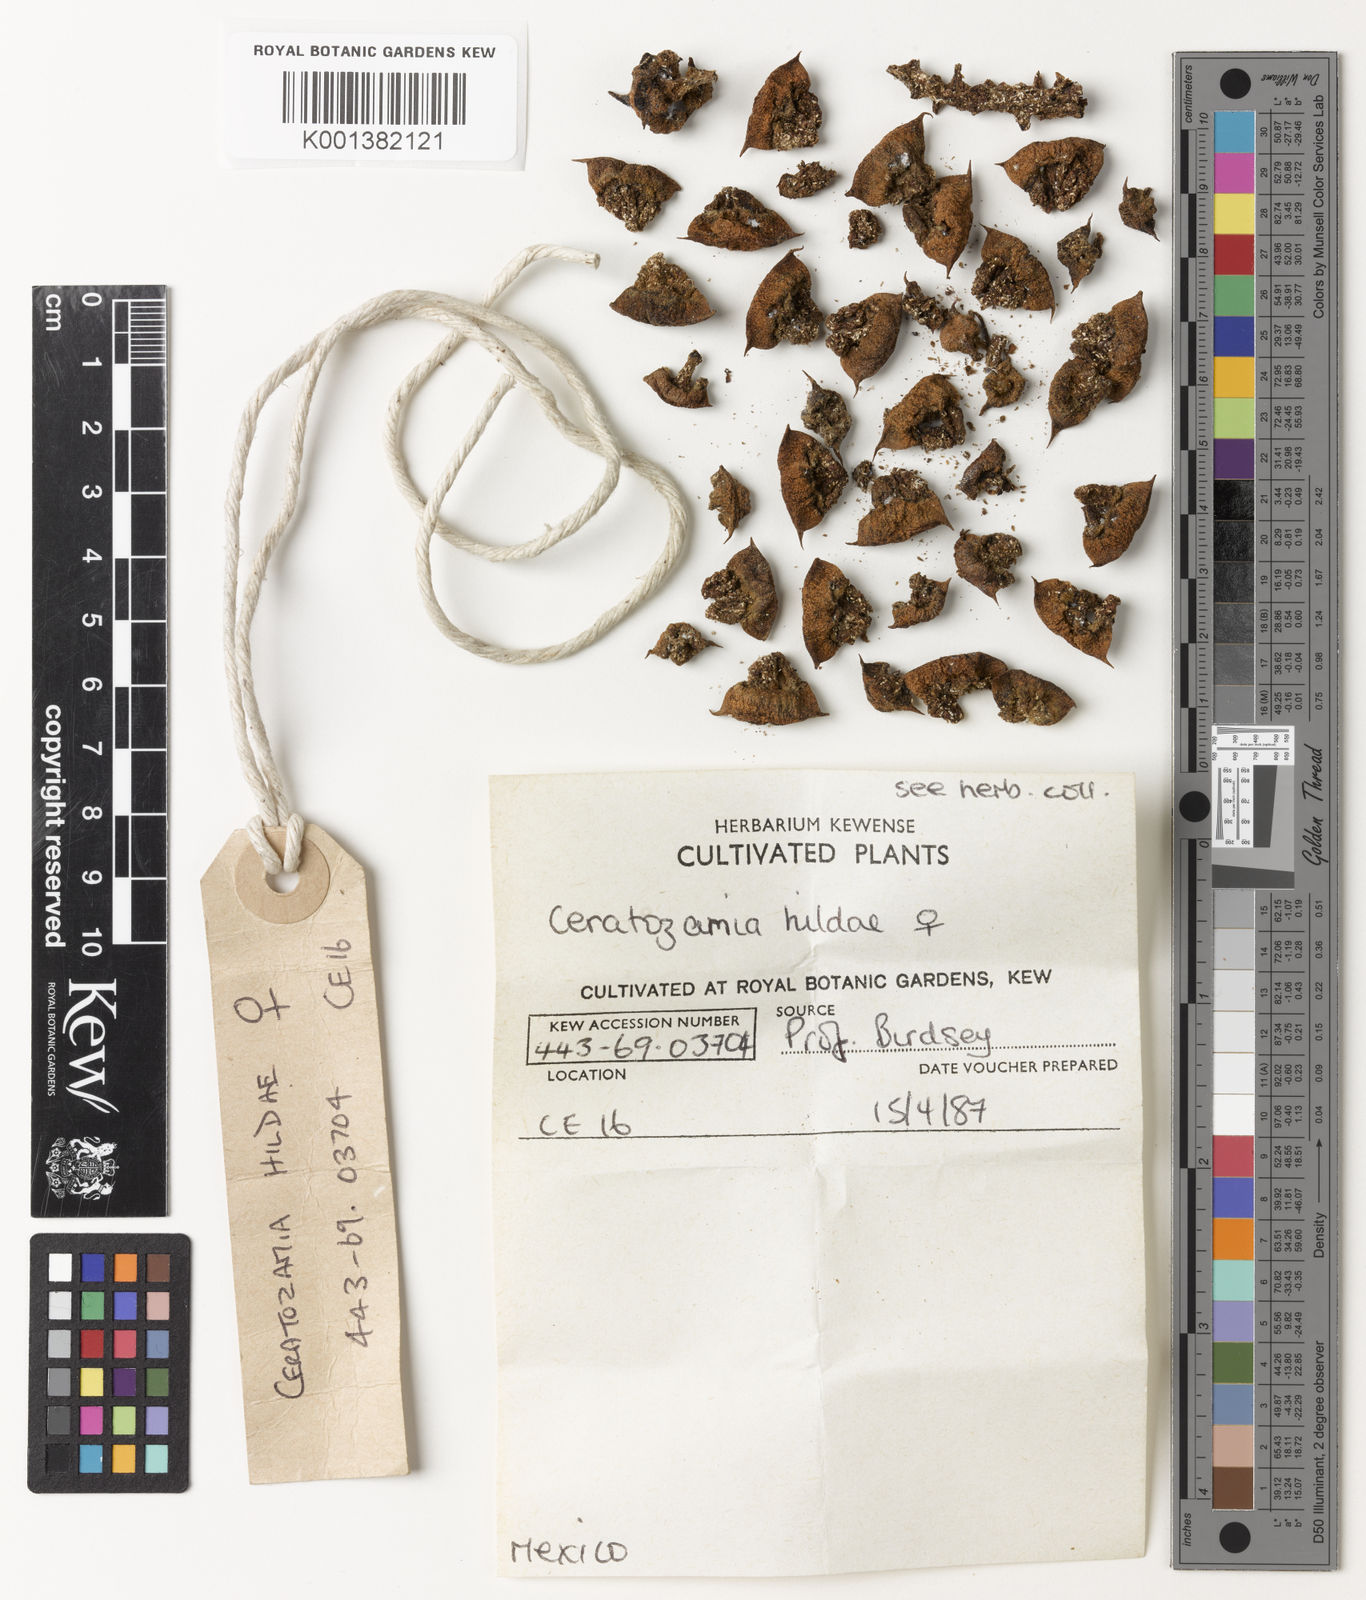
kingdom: Plantae
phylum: Tracheophyta
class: Cycadopsida
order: Cycadales
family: Zamiaceae
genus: Ceratozamia
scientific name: Ceratozamia hildae
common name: Bamboo cycad
